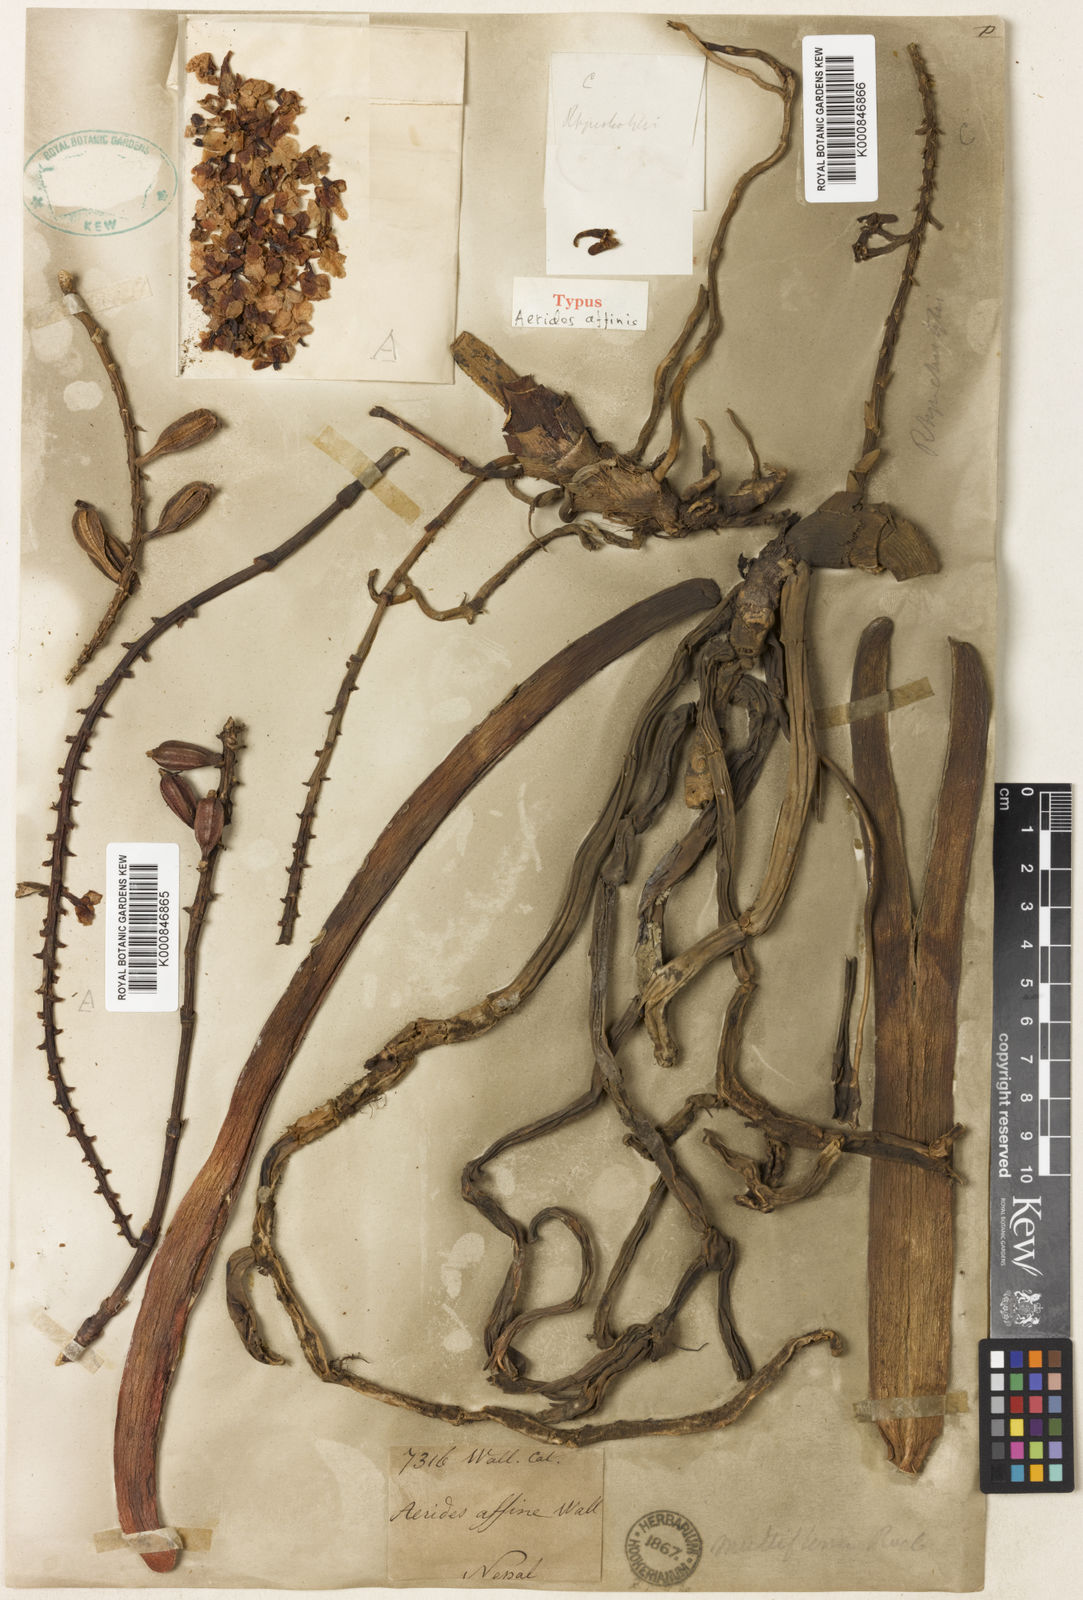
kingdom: Plantae
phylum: Tracheophyta
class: Liliopsida
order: Asparagales
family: Orchidaceae
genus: Aerides
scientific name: Aerides multiflora
